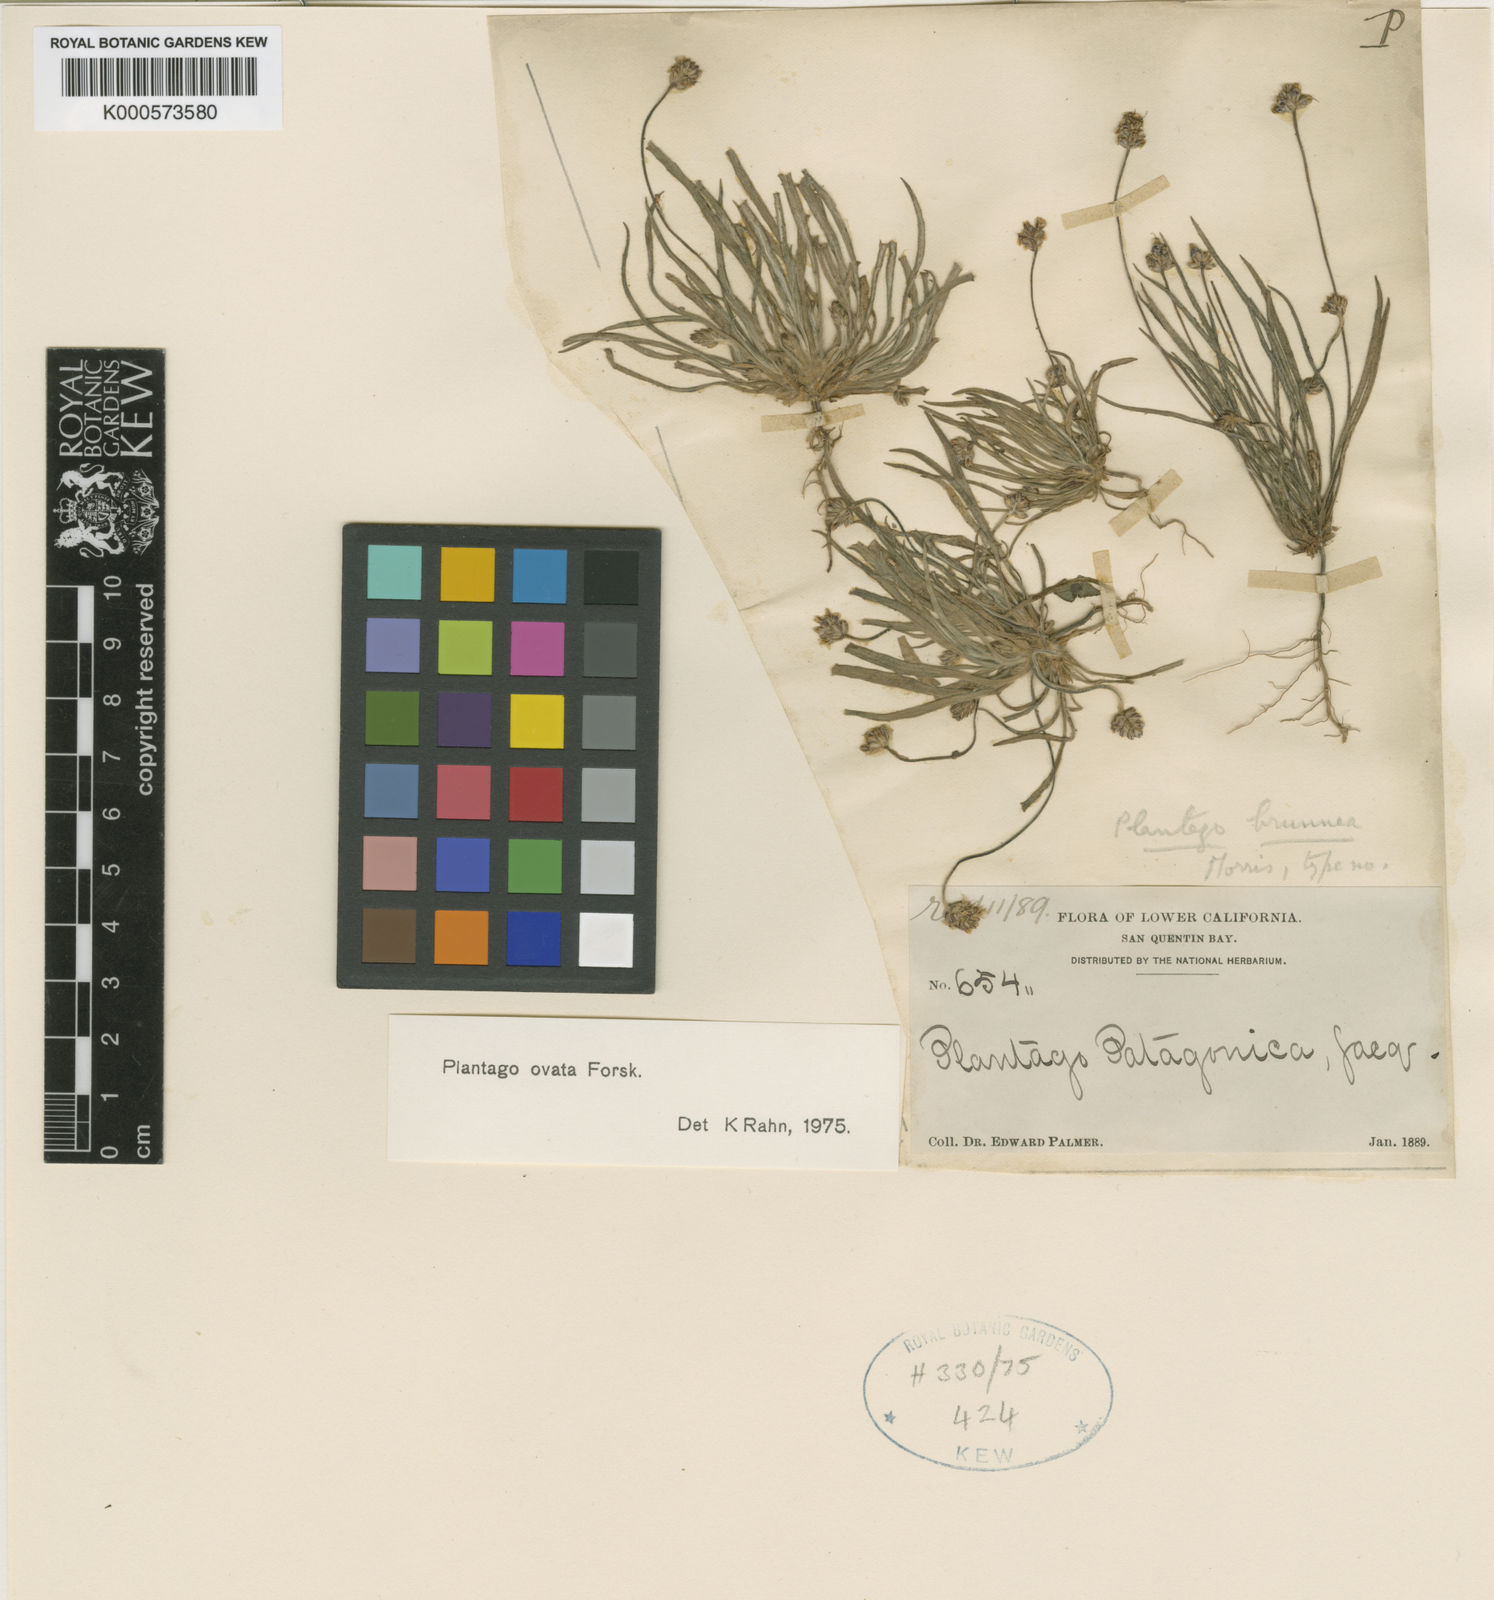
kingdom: Plantae
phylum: Tracheophyta
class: Magnoliopsida
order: Lamiales
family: Plantaginaceae
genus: Plantago
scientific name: Plantago ovata
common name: Blond plantain
